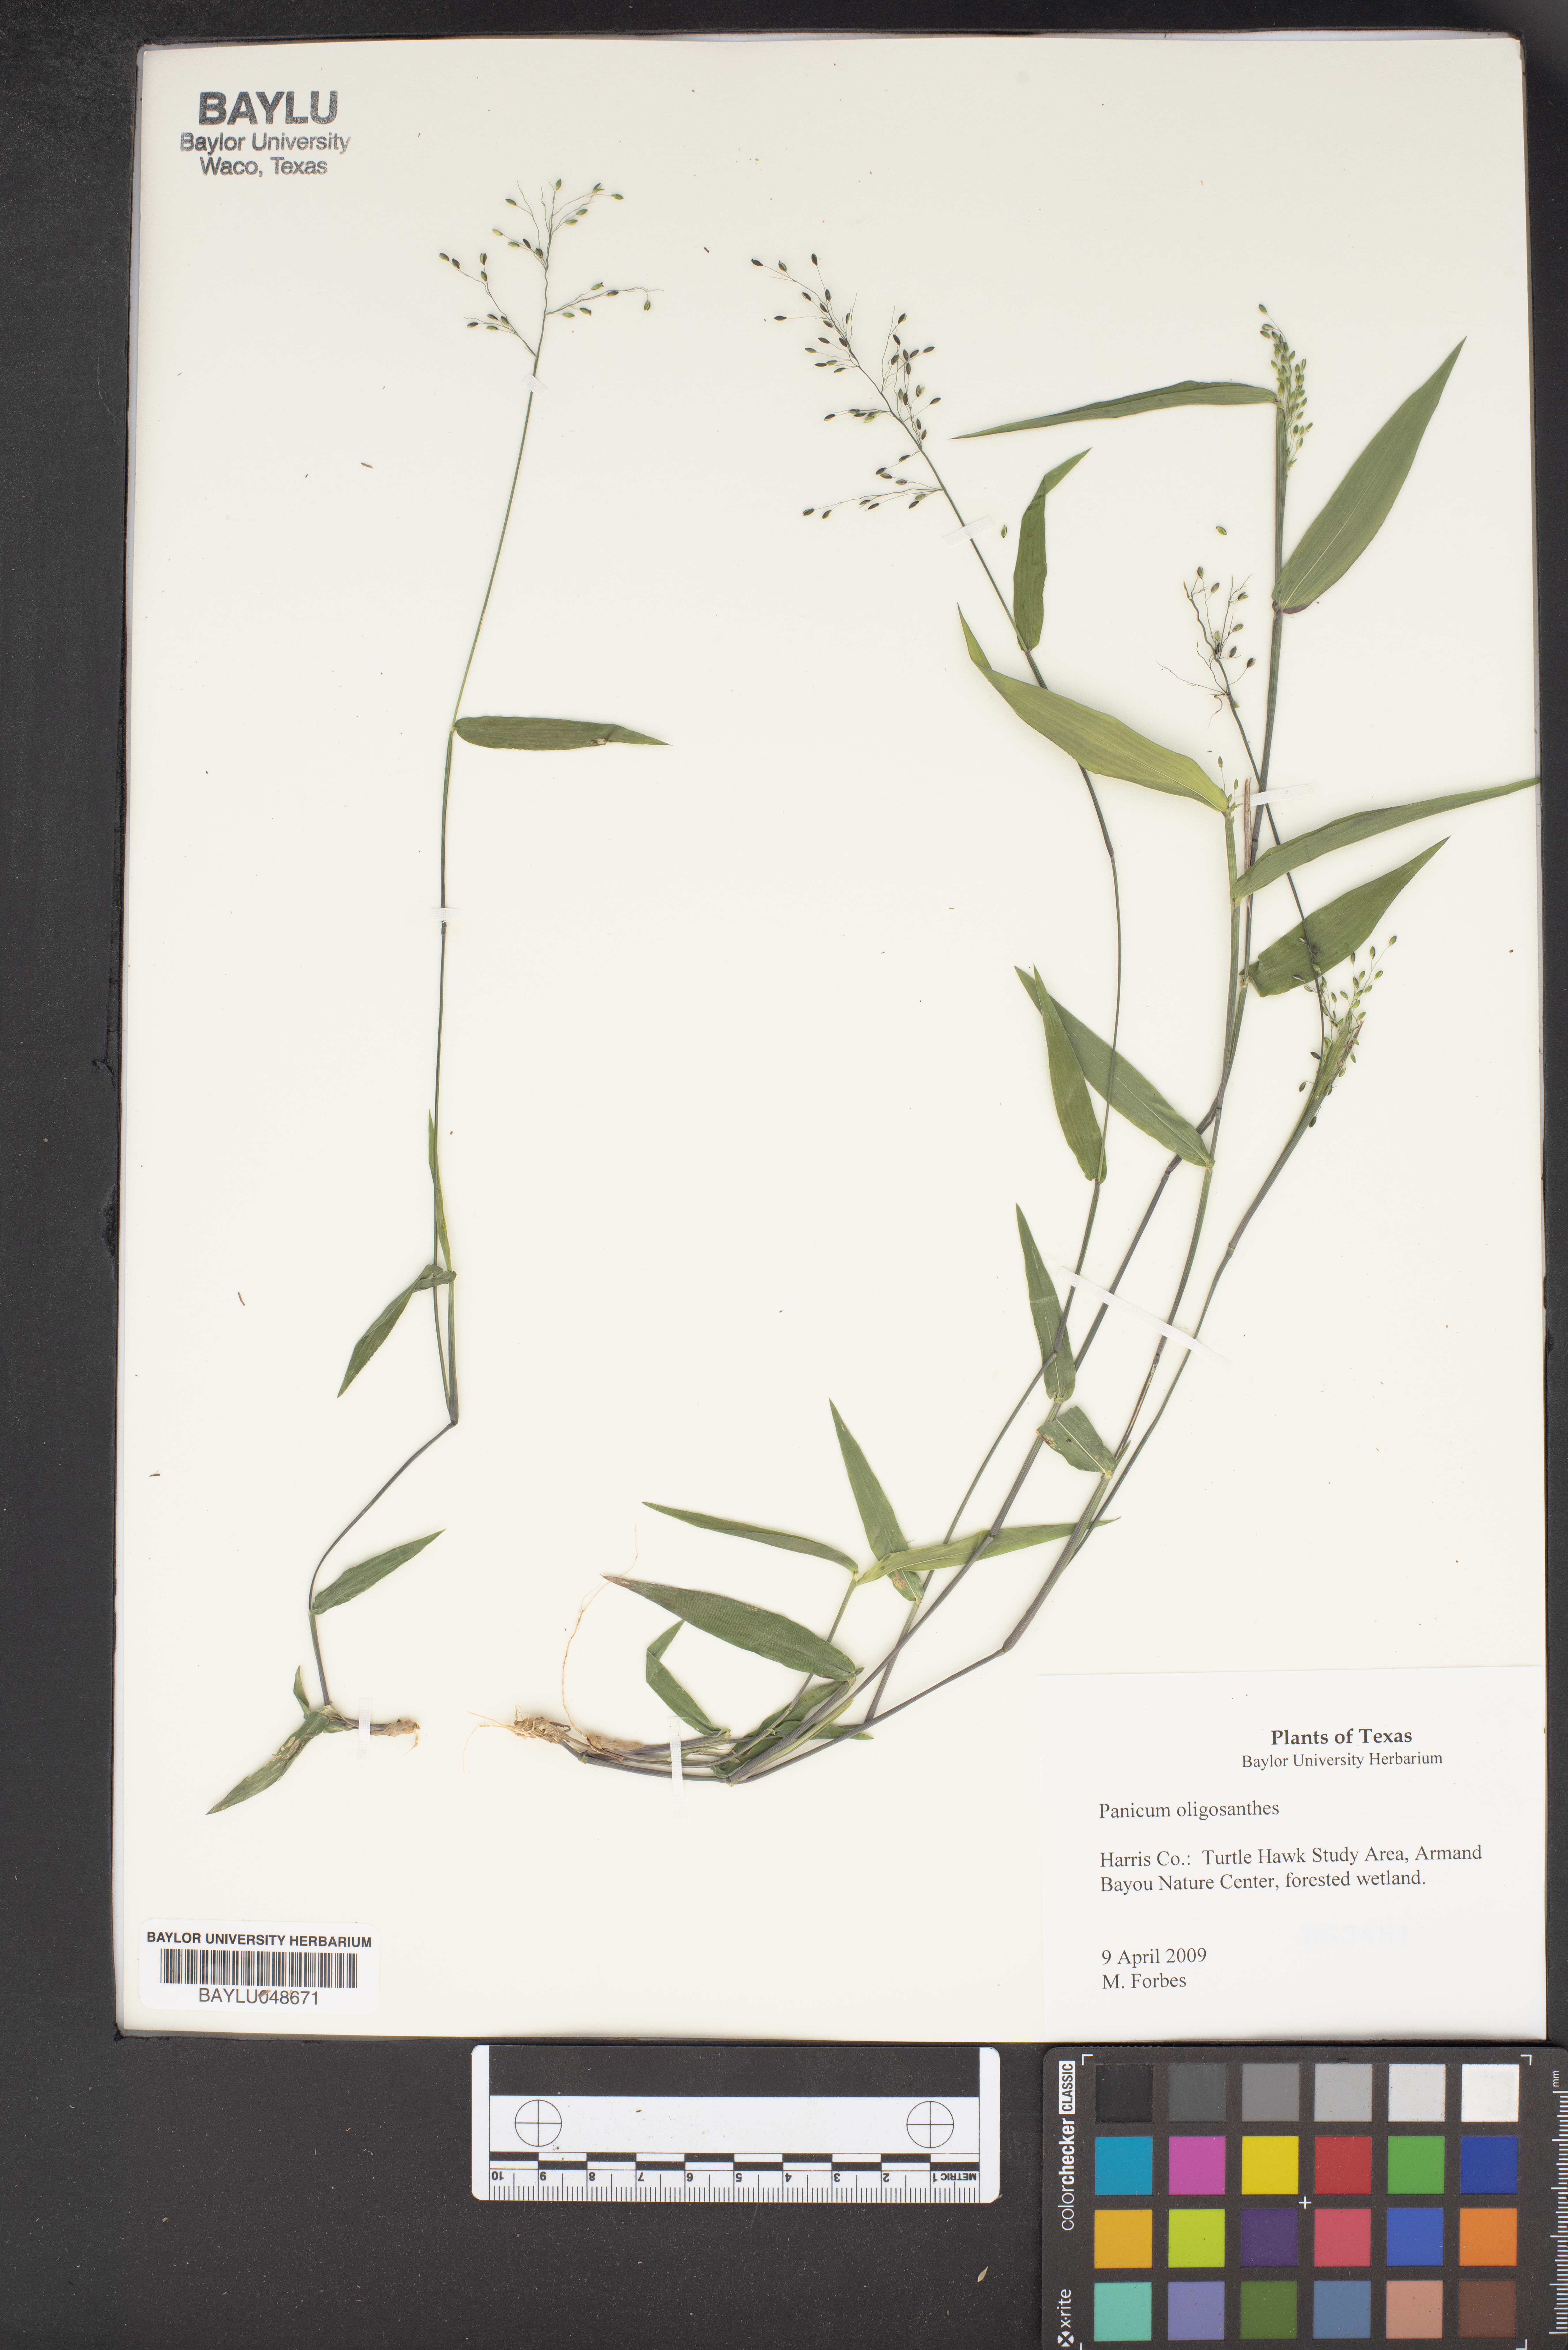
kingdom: Plantae
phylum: Tracheophyta
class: Liliopsida
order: Poales
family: Poaceae
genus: Dichanthelium
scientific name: Dichanthelium oligosanthes
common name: Few-anther obscuregrass
